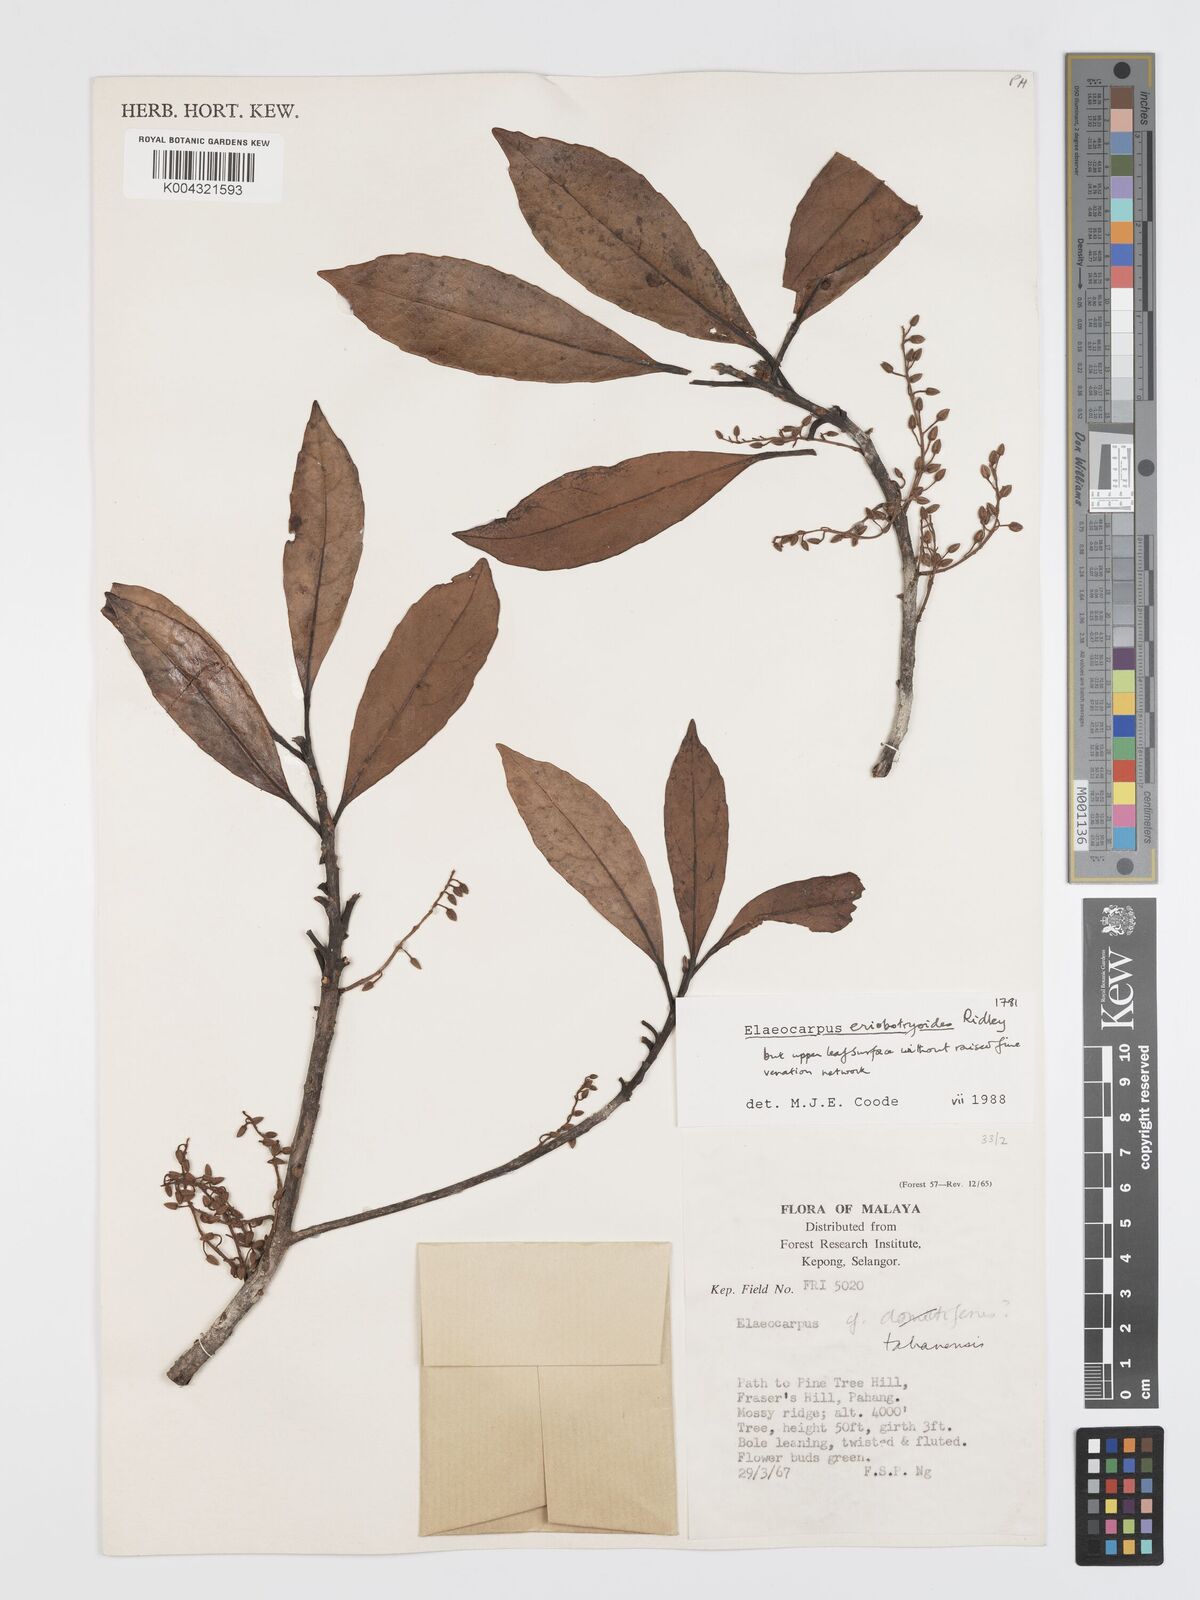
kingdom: Plantae
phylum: Tracheophyta
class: Magnoliopsida
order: Oxalidales
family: Elaeocarpaceae
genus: Elaeocarpus
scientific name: Elaeocarpus eriobotryoides
